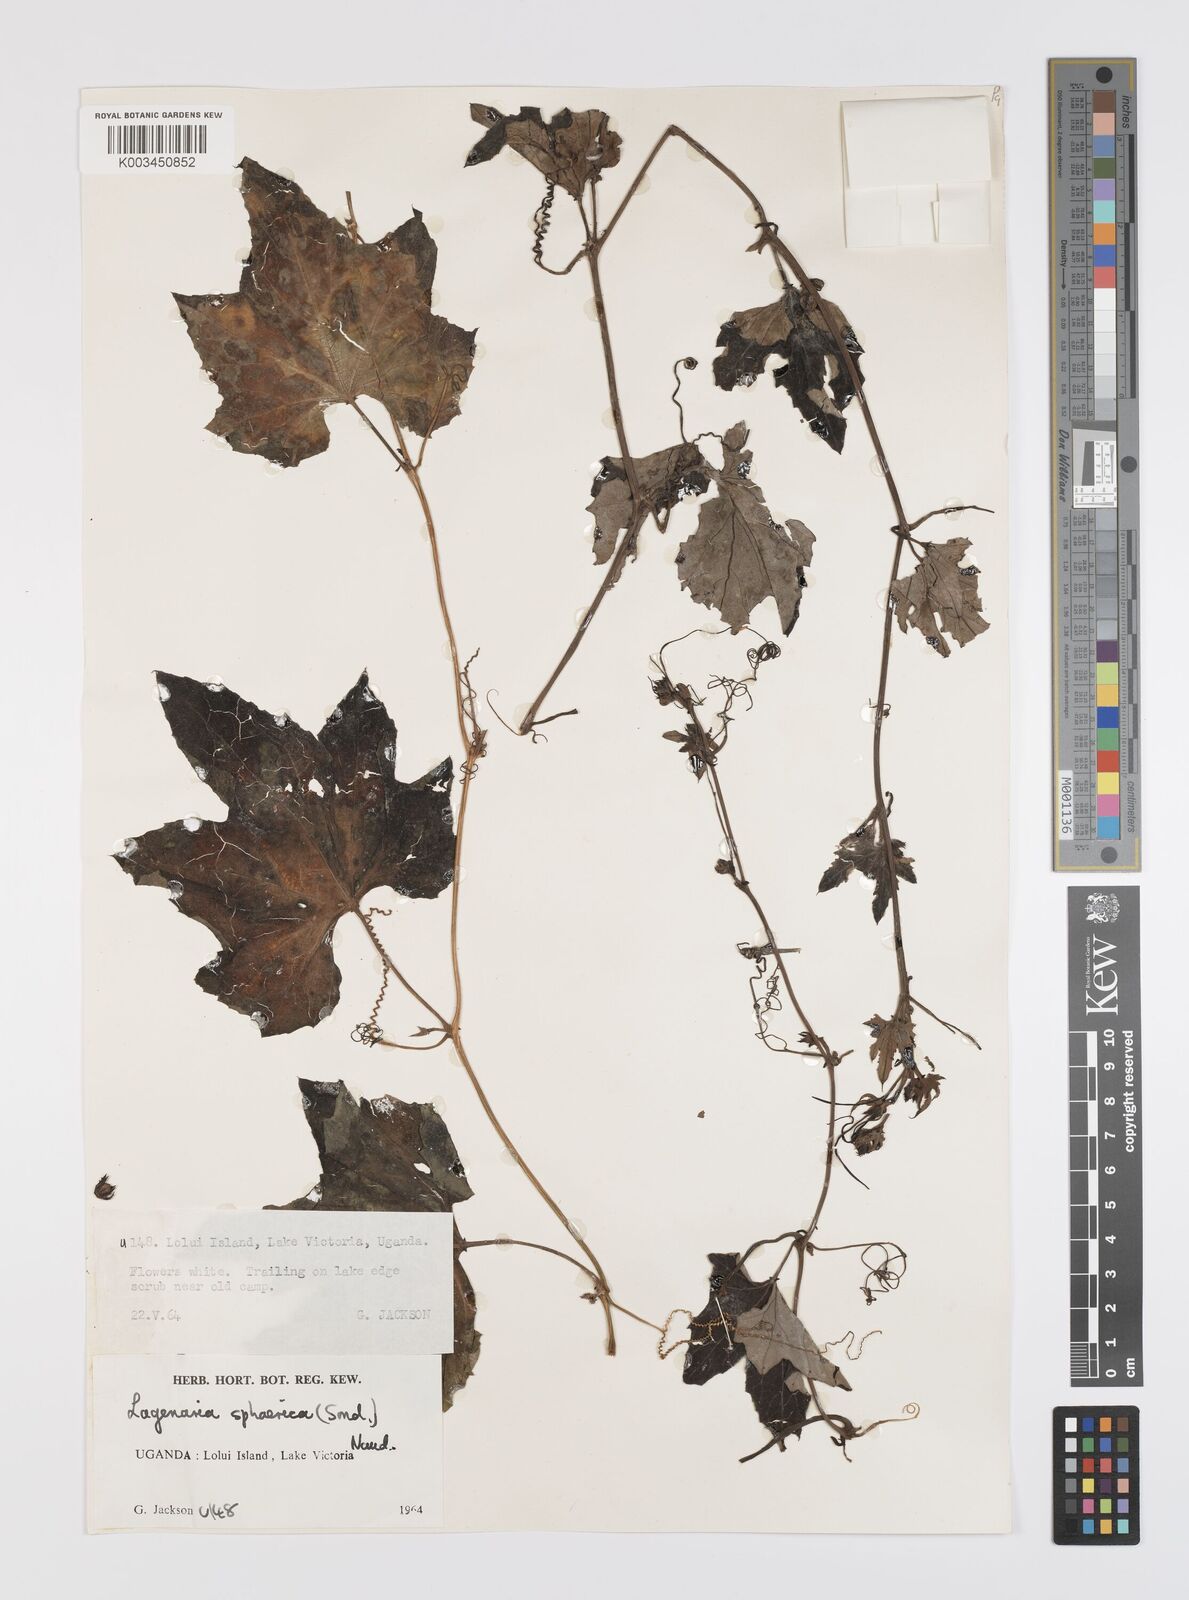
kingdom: Plantae
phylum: Tracheophyta
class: Magnoliopsida
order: Cucurbitales
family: Cucurbitaceae
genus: Lagenaria
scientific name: Lagenaria sphaerica
